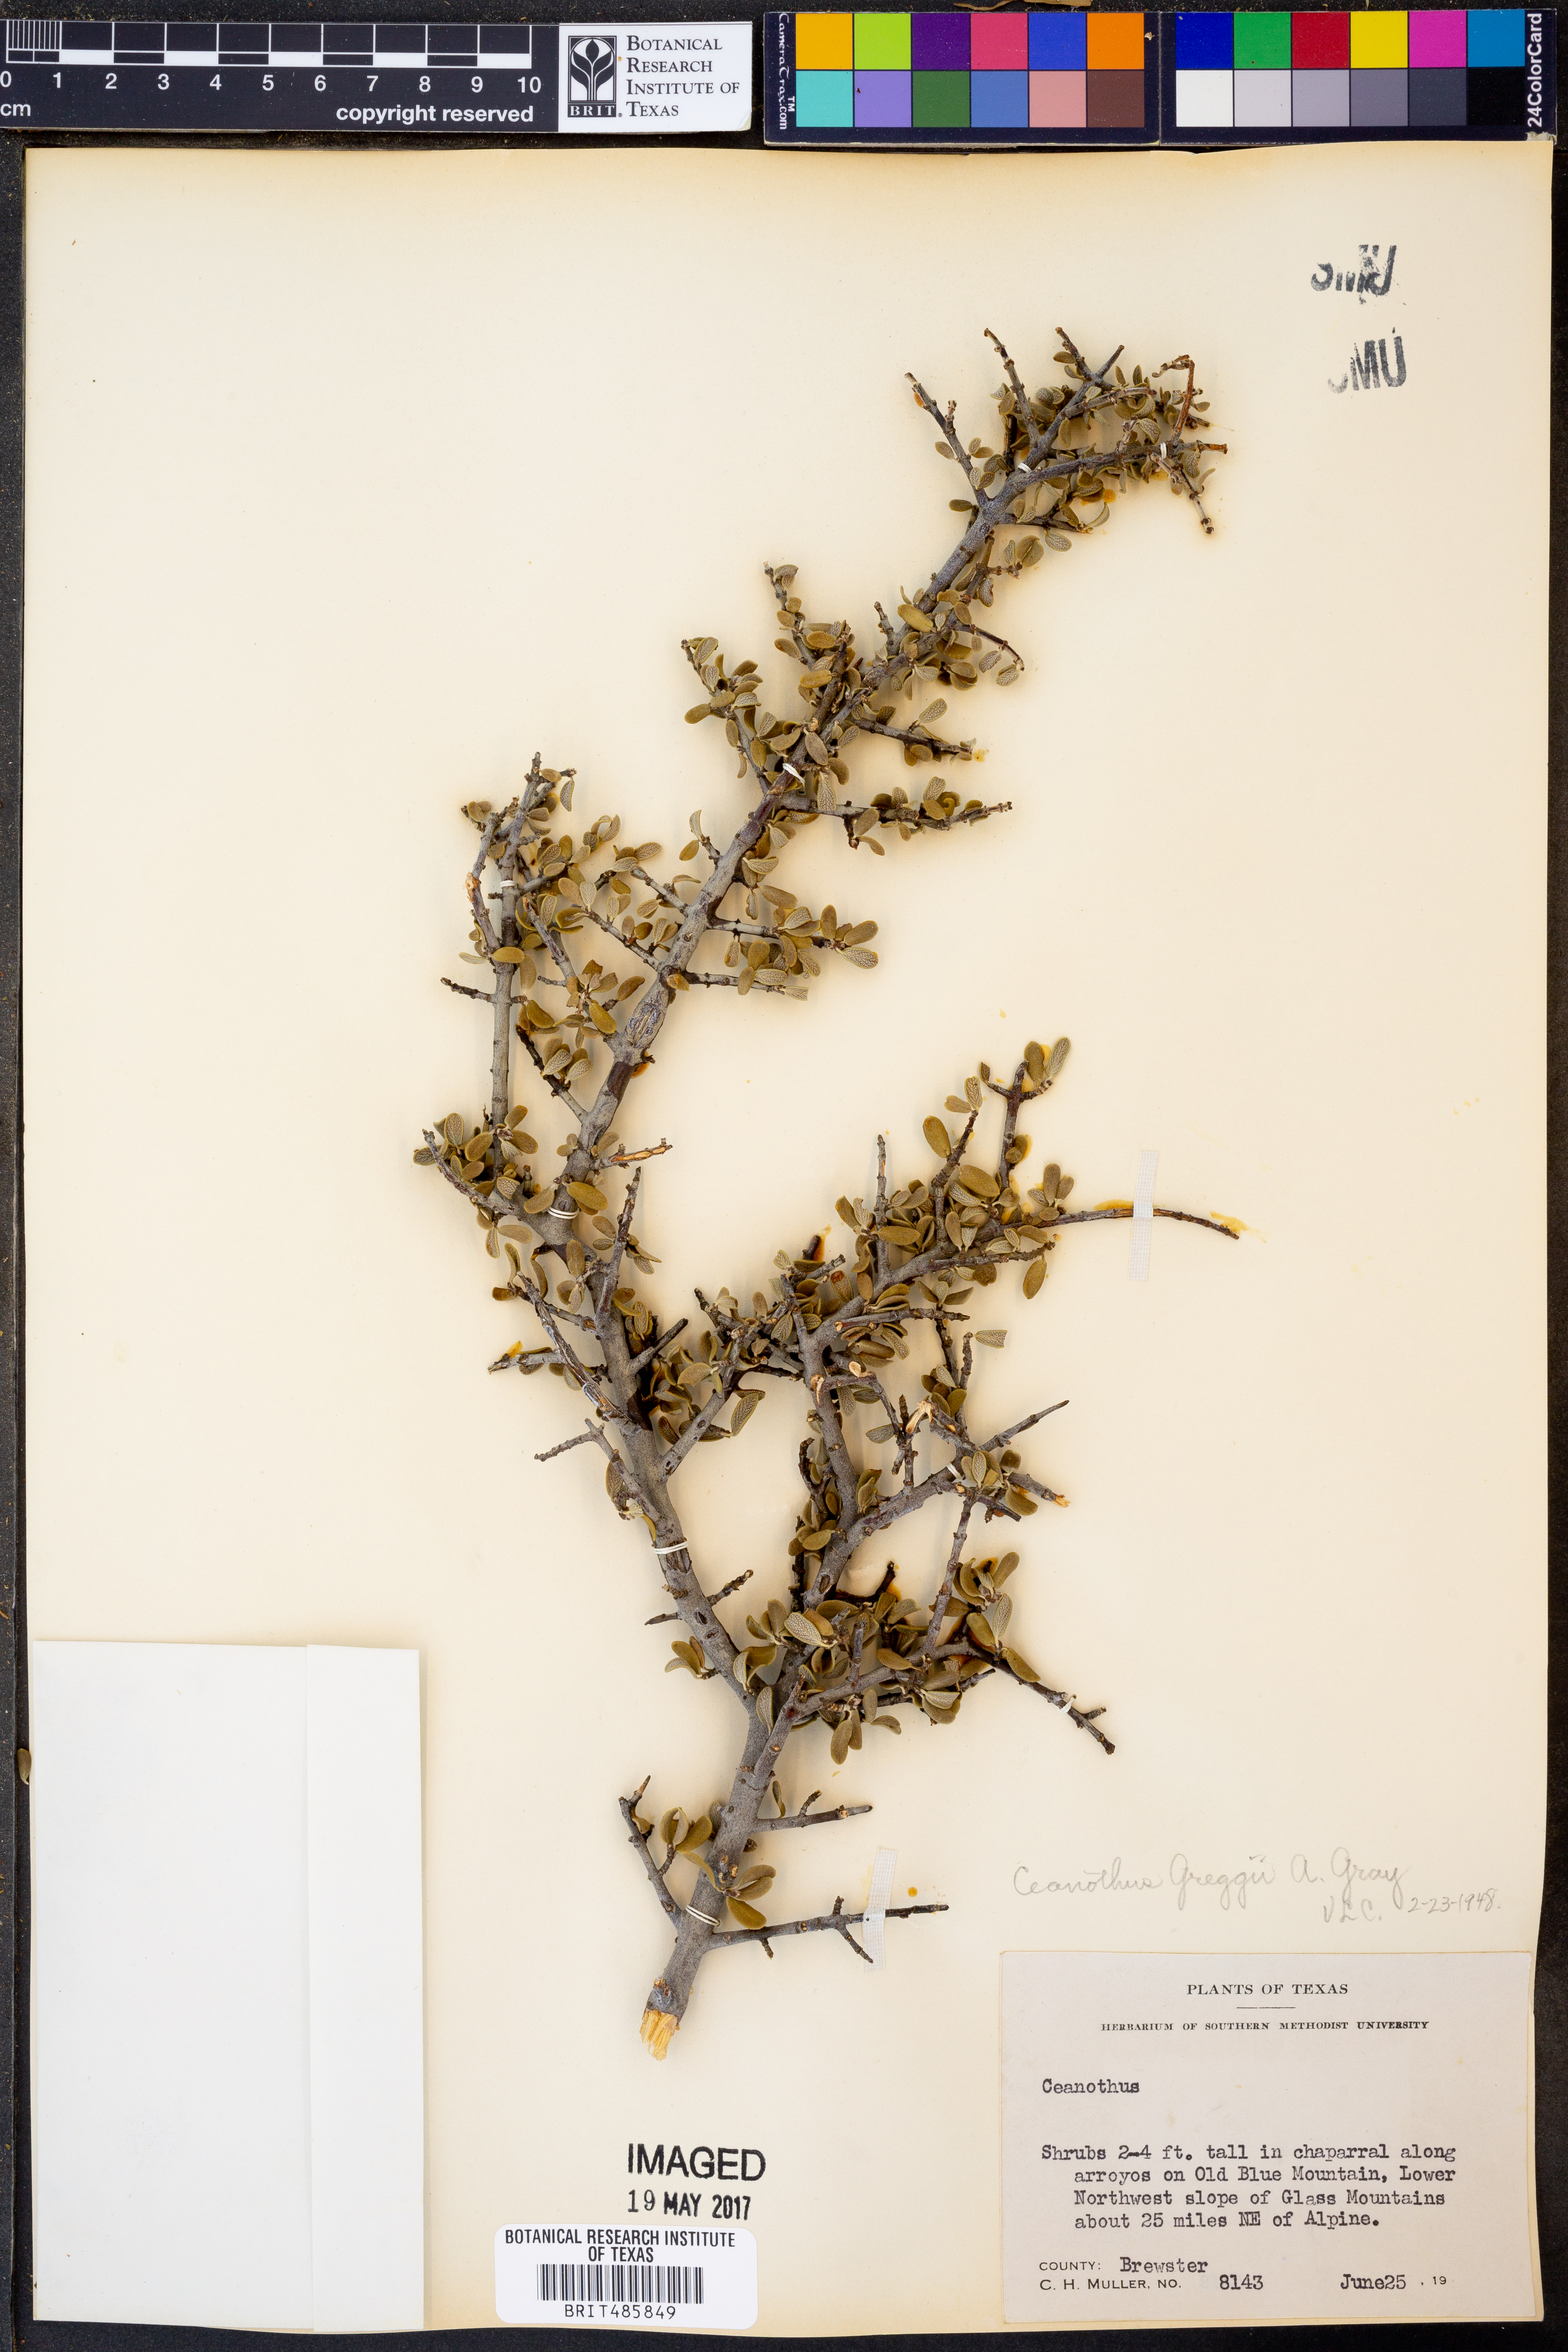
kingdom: Plantae
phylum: Tracheophyta
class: Magnoliopsida
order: Rosales
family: Rhamnaceae
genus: Ceanothus
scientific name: Ceanothus pauciflorus
